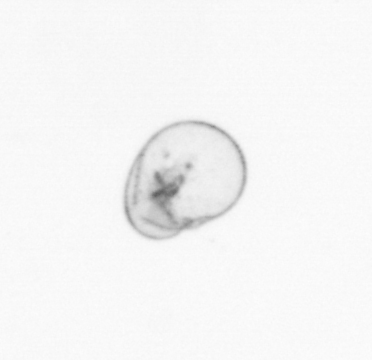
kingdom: Chromista
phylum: Myzozoa
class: Dinophyceae
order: Noctilucales
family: Noctilucaceae
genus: Noctiluca
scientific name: Noctiluca scintillans
